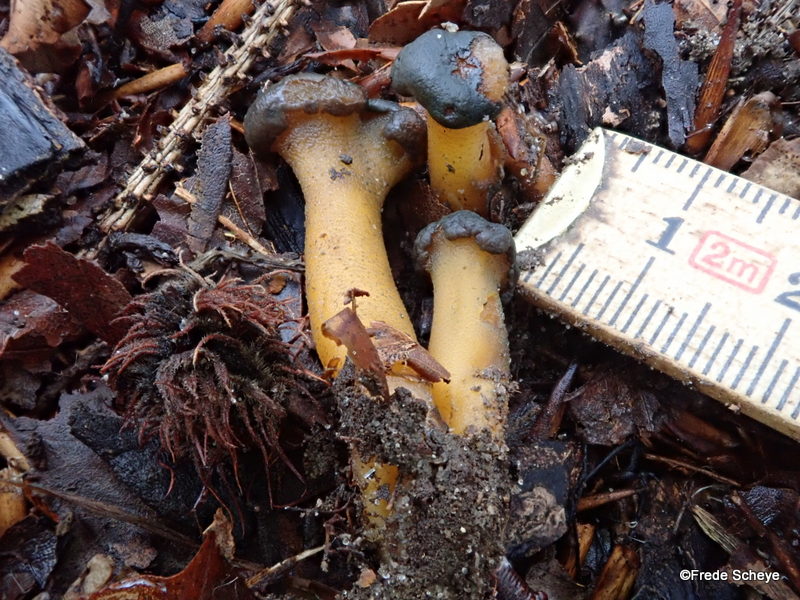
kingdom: Fungi
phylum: Ascomycota
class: Leotiomycetes
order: Leotiales
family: Leotiaceae
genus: Leotia
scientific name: Leotia lubrica
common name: ravsvamp
